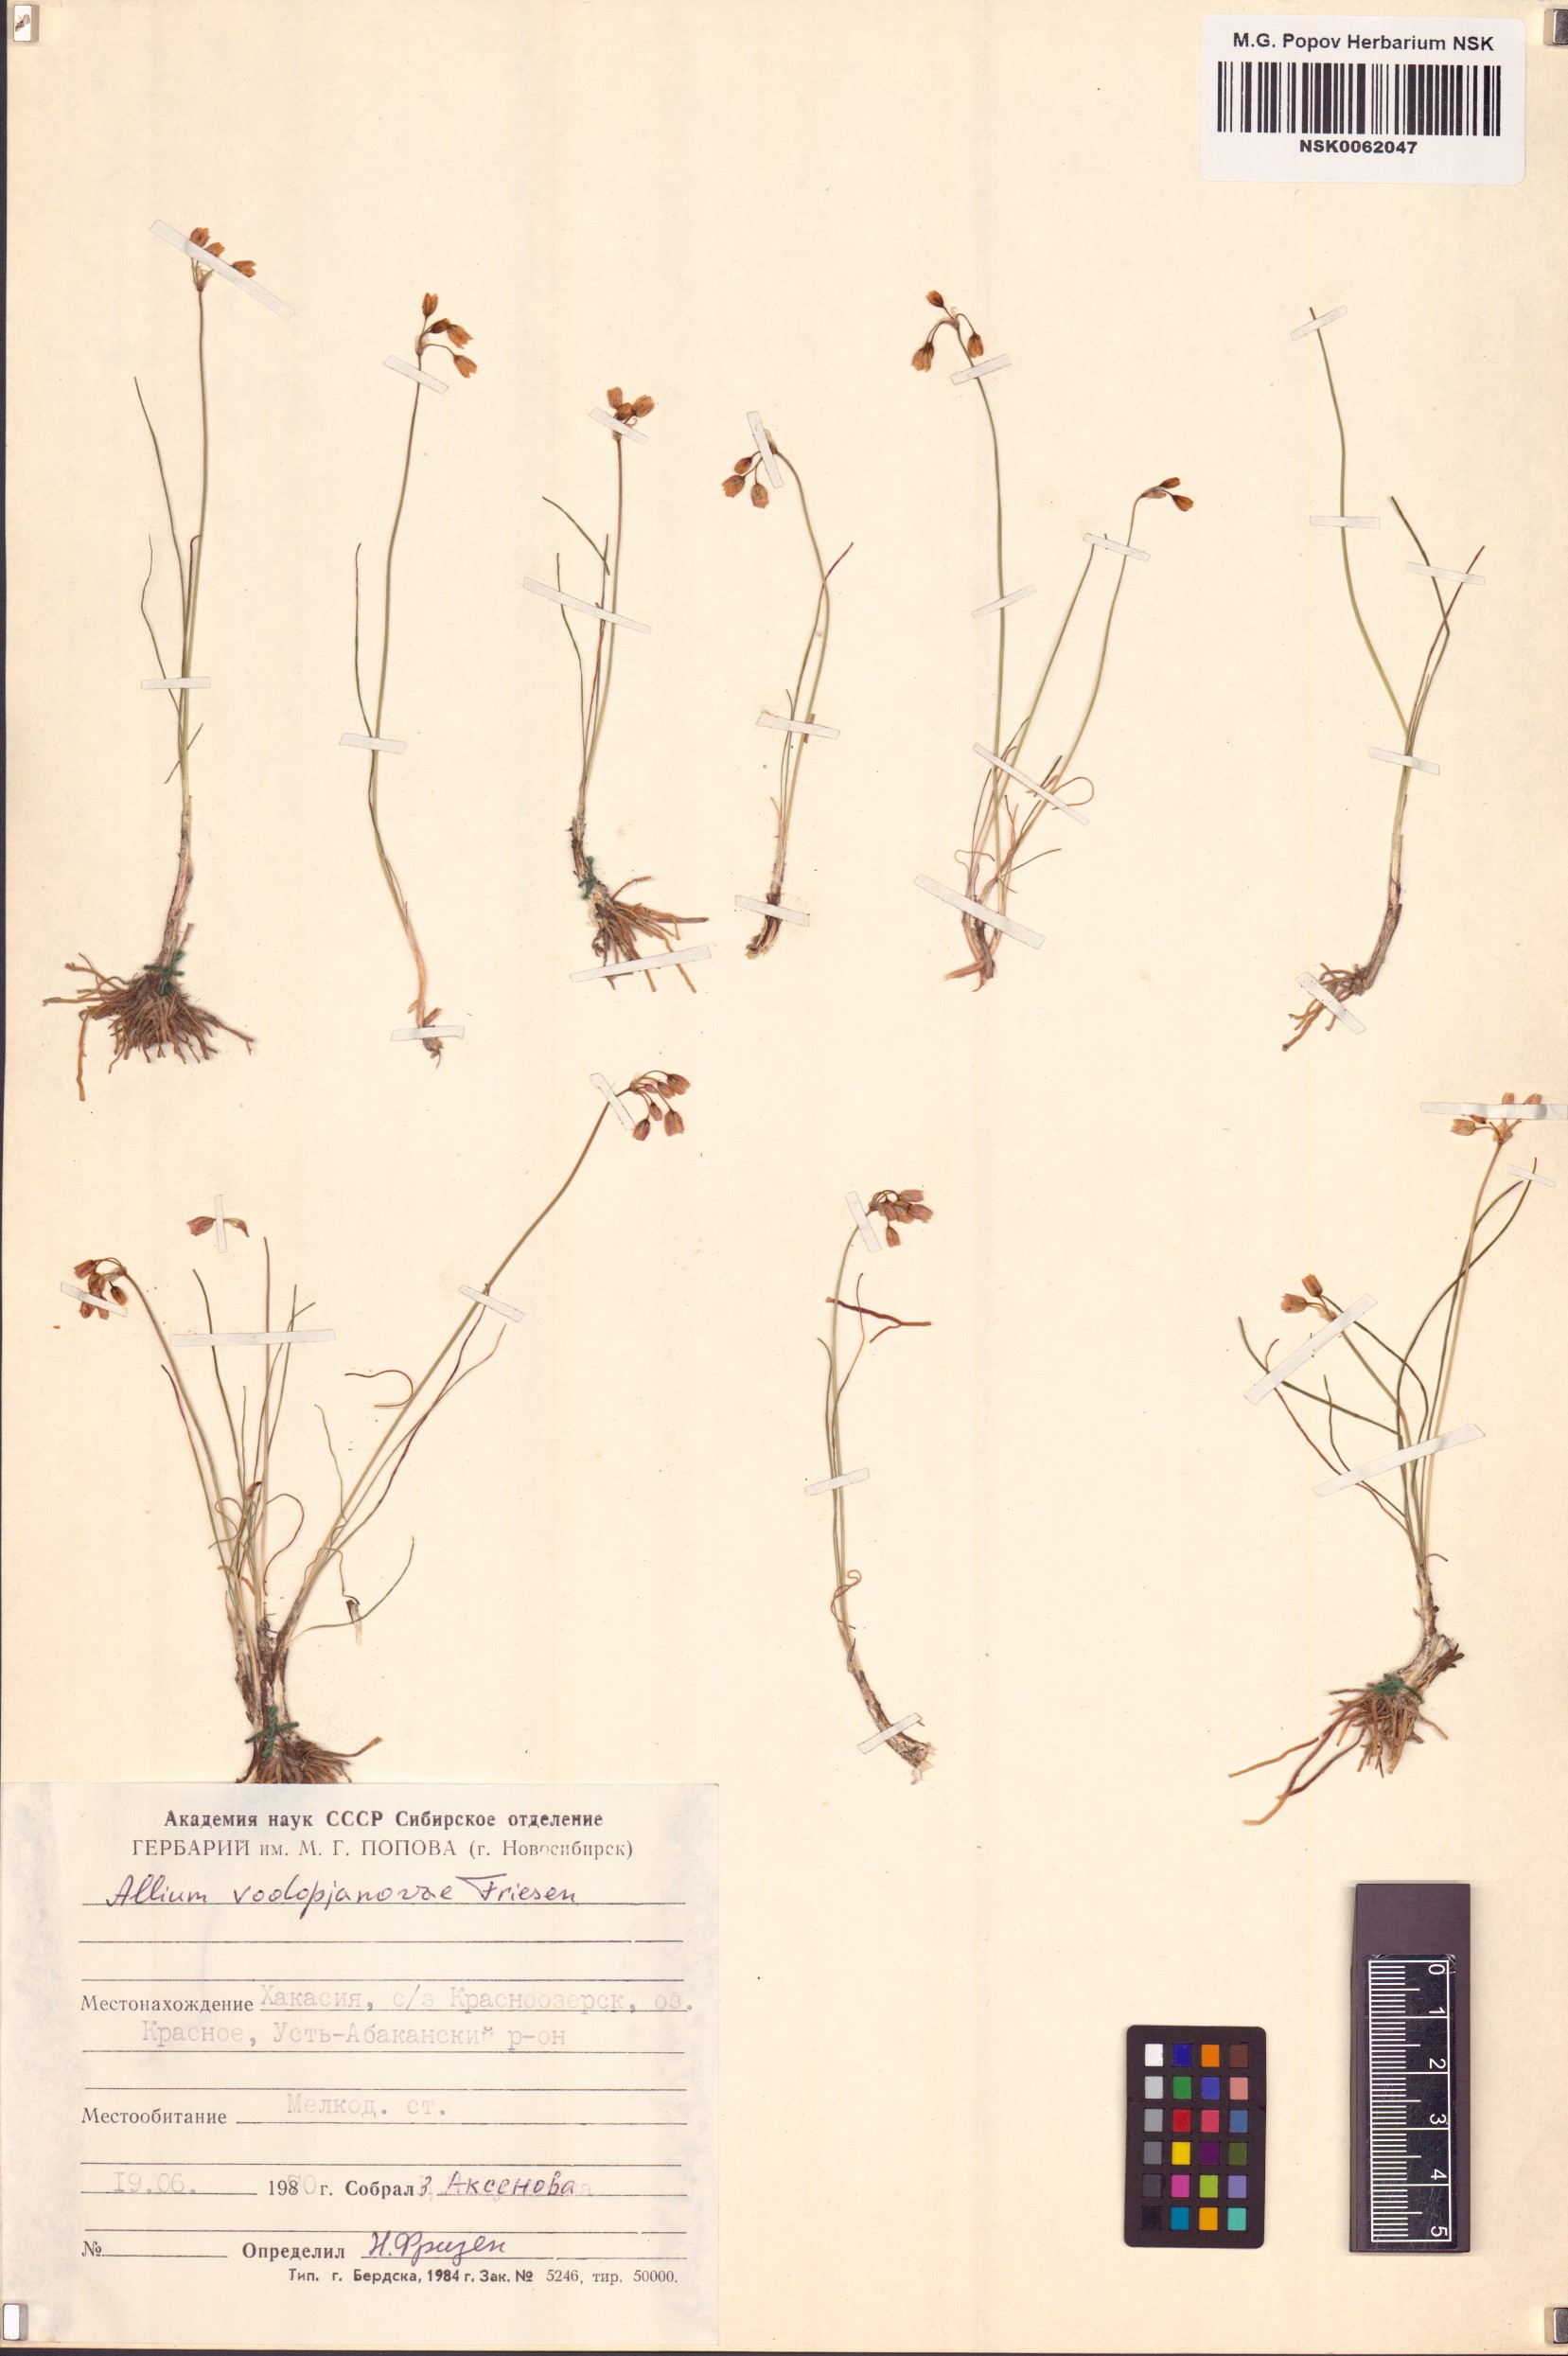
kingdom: Plantae
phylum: Tracheophyta
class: Liliopsida
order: Asparagales
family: Amaryllidaceae
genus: Allium
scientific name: Allium vodopjanovae
